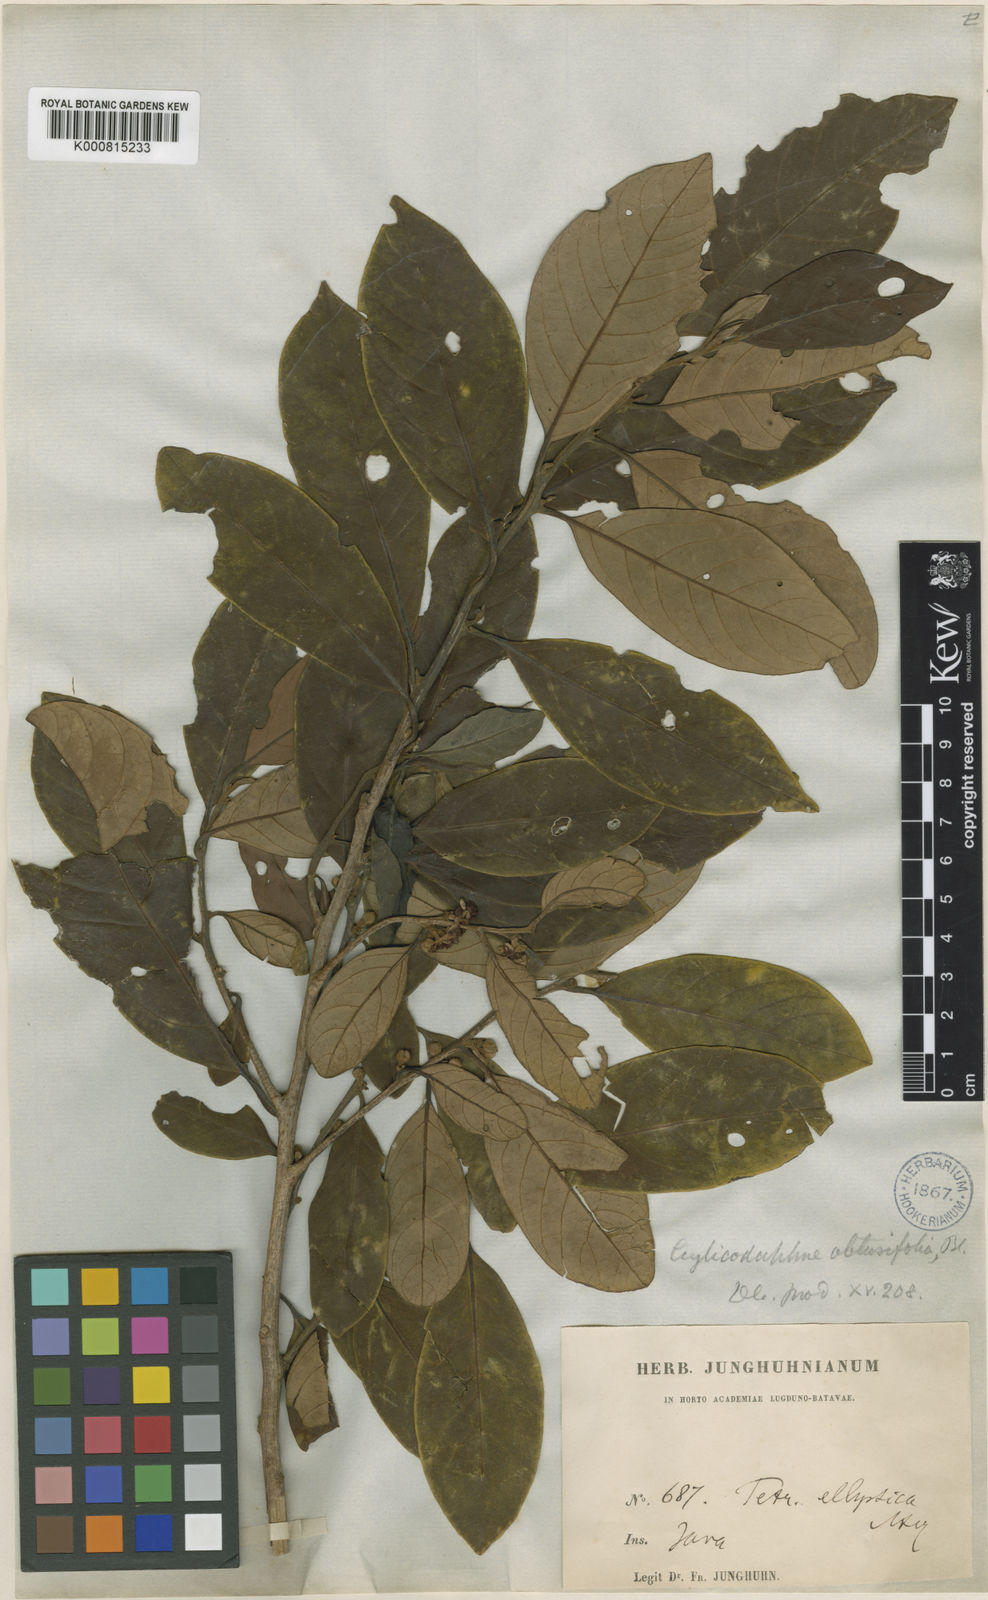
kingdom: Plantae
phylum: Tracheophyta
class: Magnoliopsida
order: Laurales
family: Lauraceae
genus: Litsea
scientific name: Litsea diversifolia
